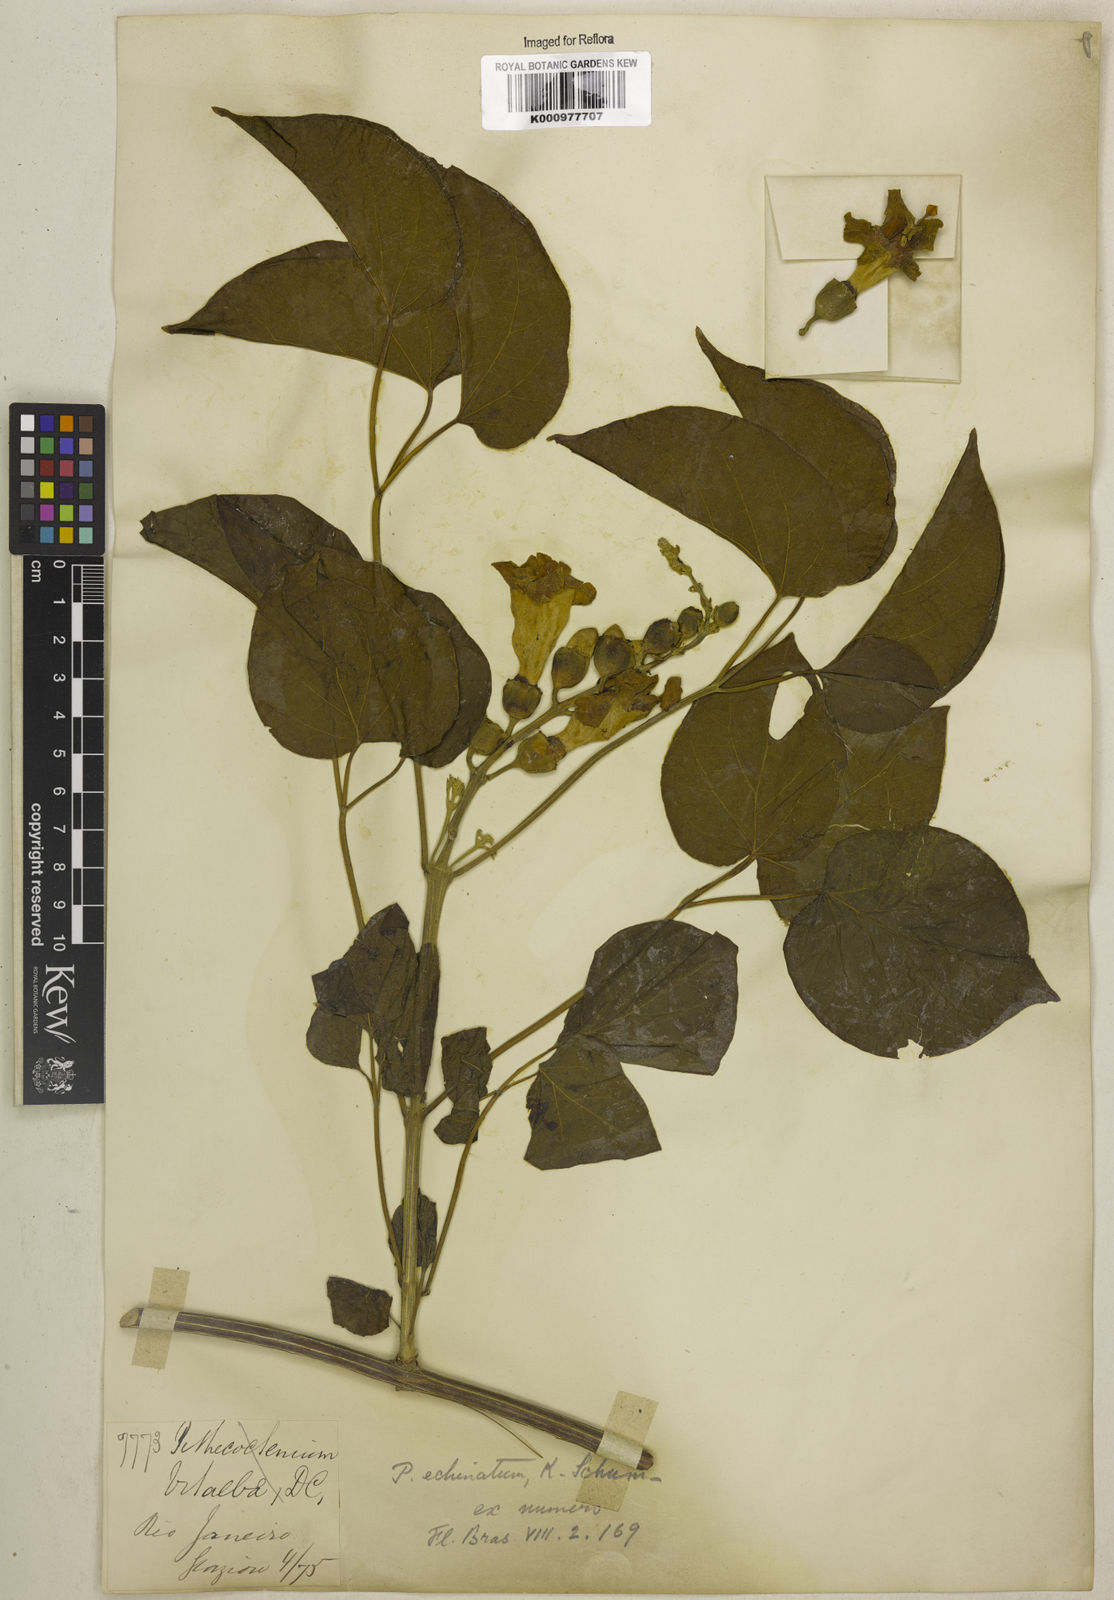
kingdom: Plantae
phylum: Tracheophyta
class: Magnoliopsida
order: Lamiales
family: Bignoniaceae
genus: Amphilophium
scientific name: Amphilophium crucigerum
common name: Monkey comb
